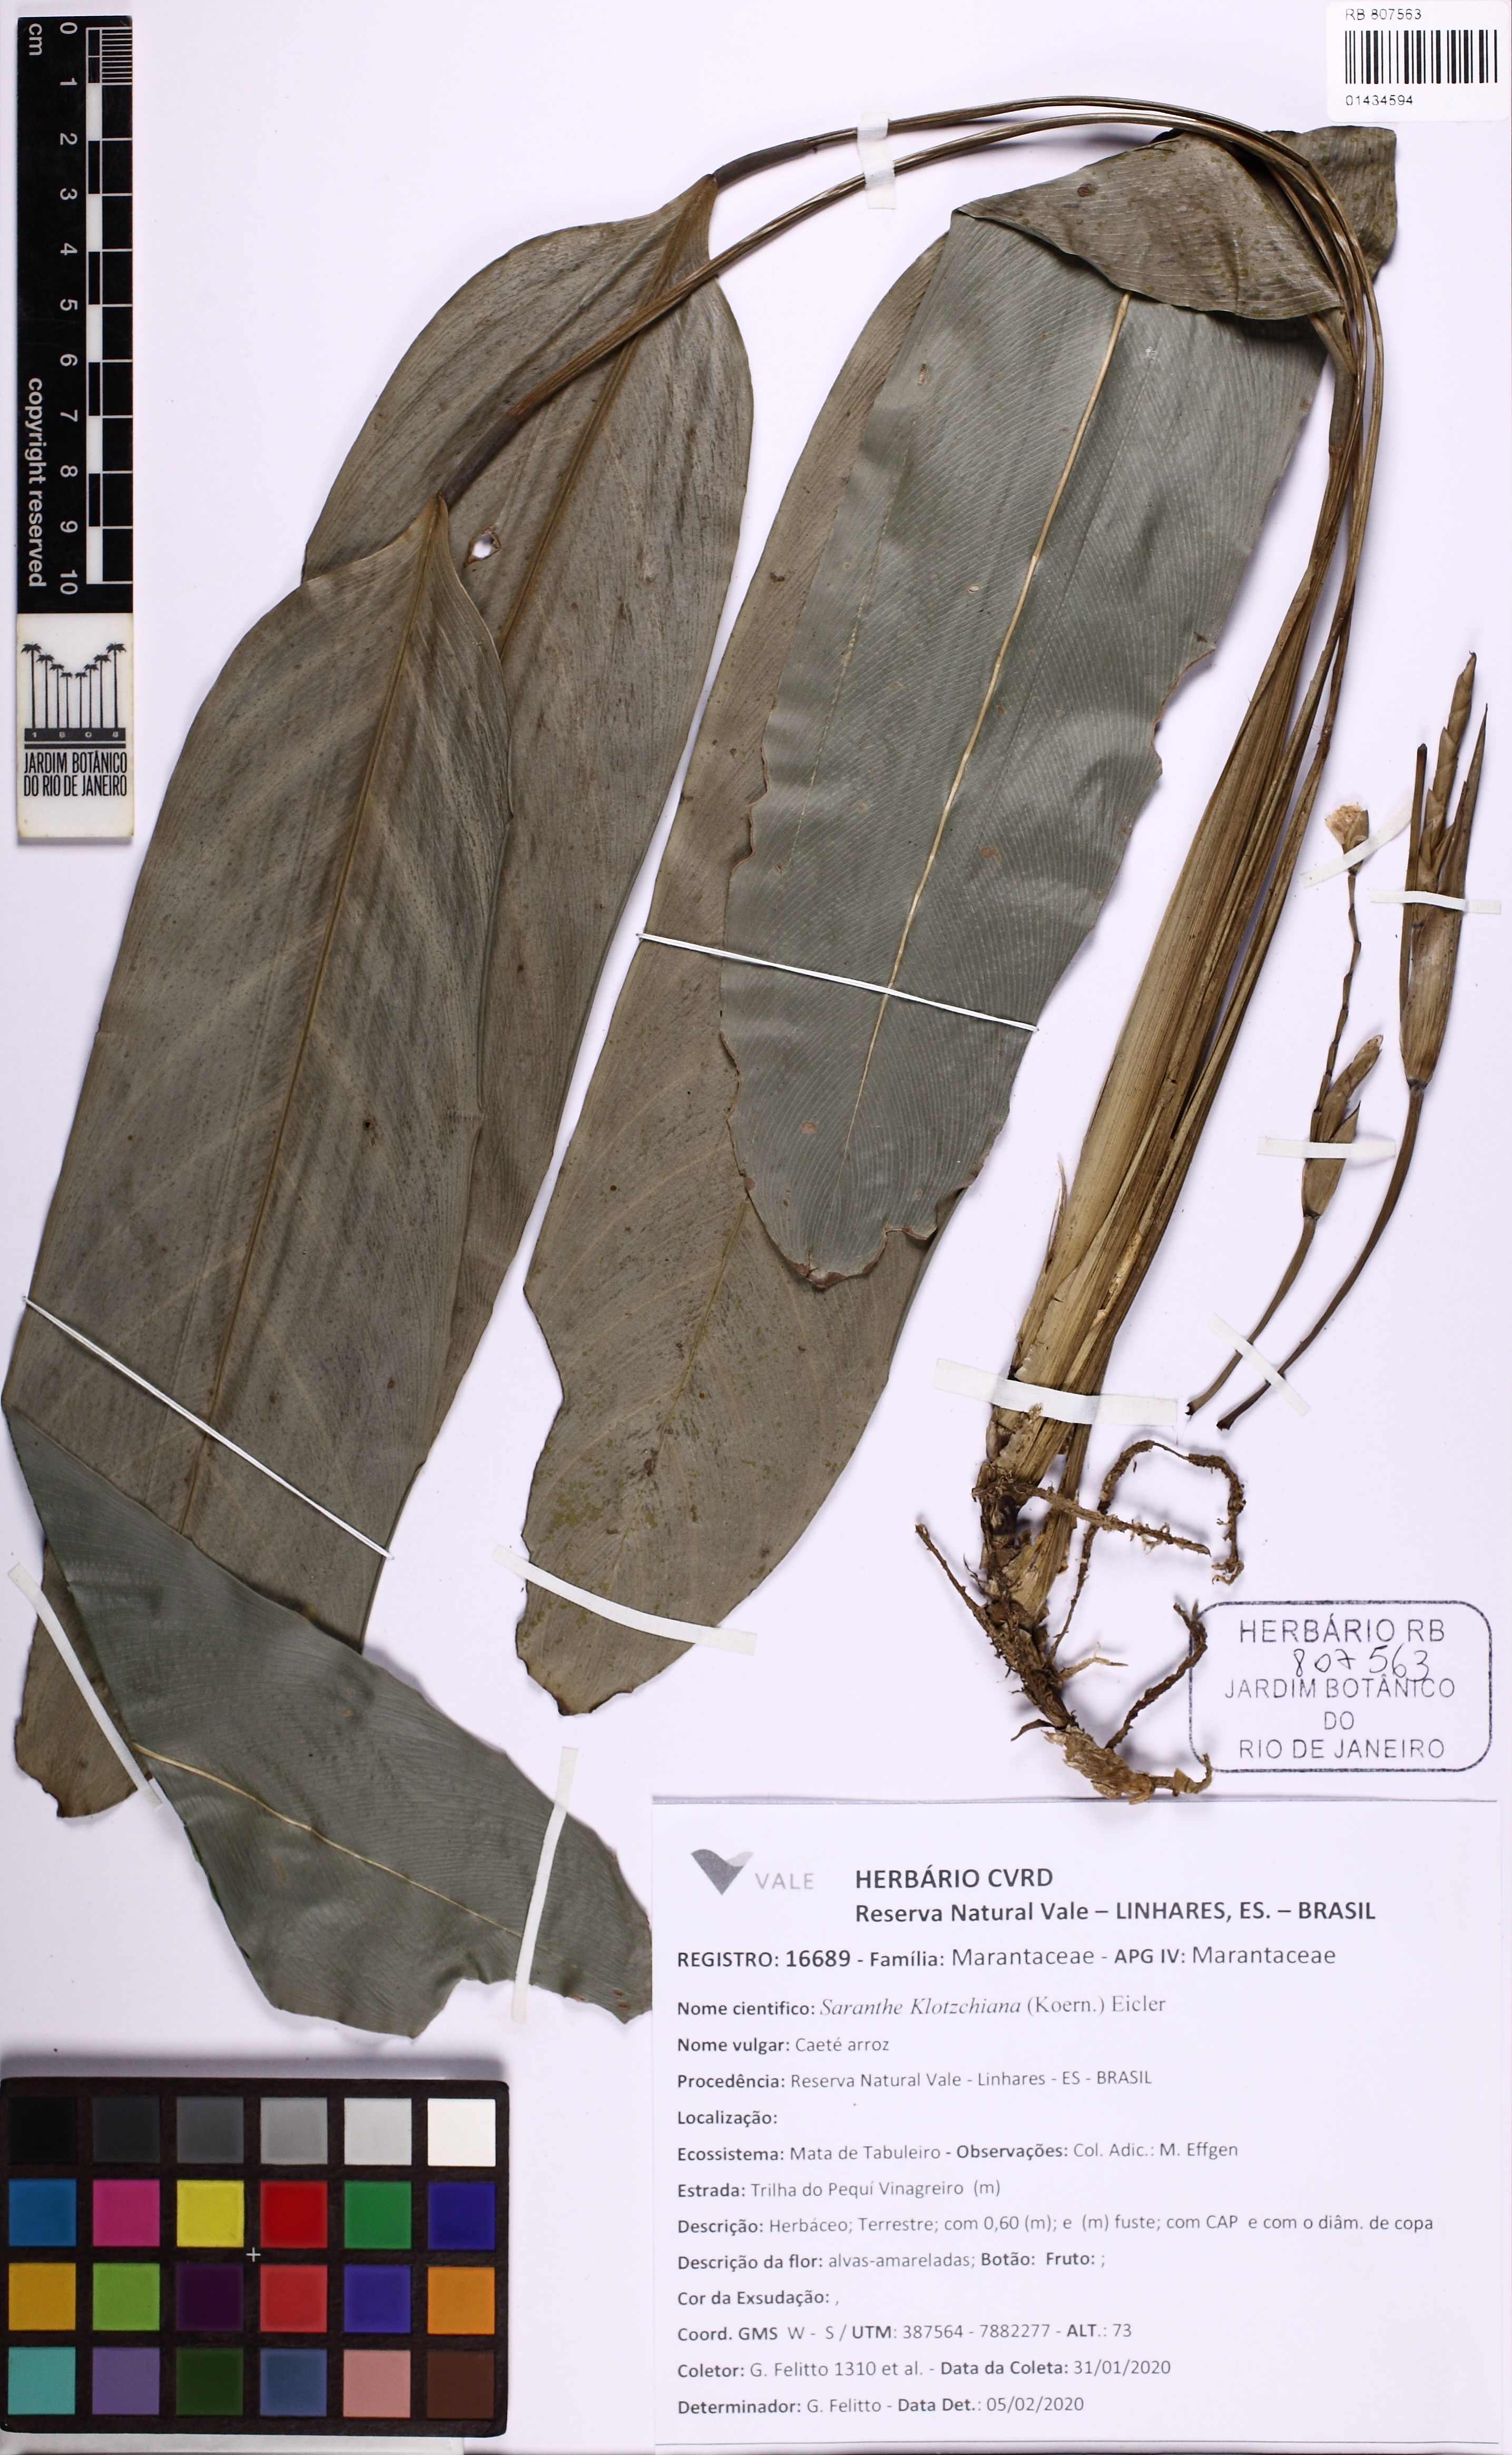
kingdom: Plantae
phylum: Tracheophyta
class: Liliopsida
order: Zingiberales
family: Marantaceae
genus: Saranthe
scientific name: Saranthe klotzschiana
